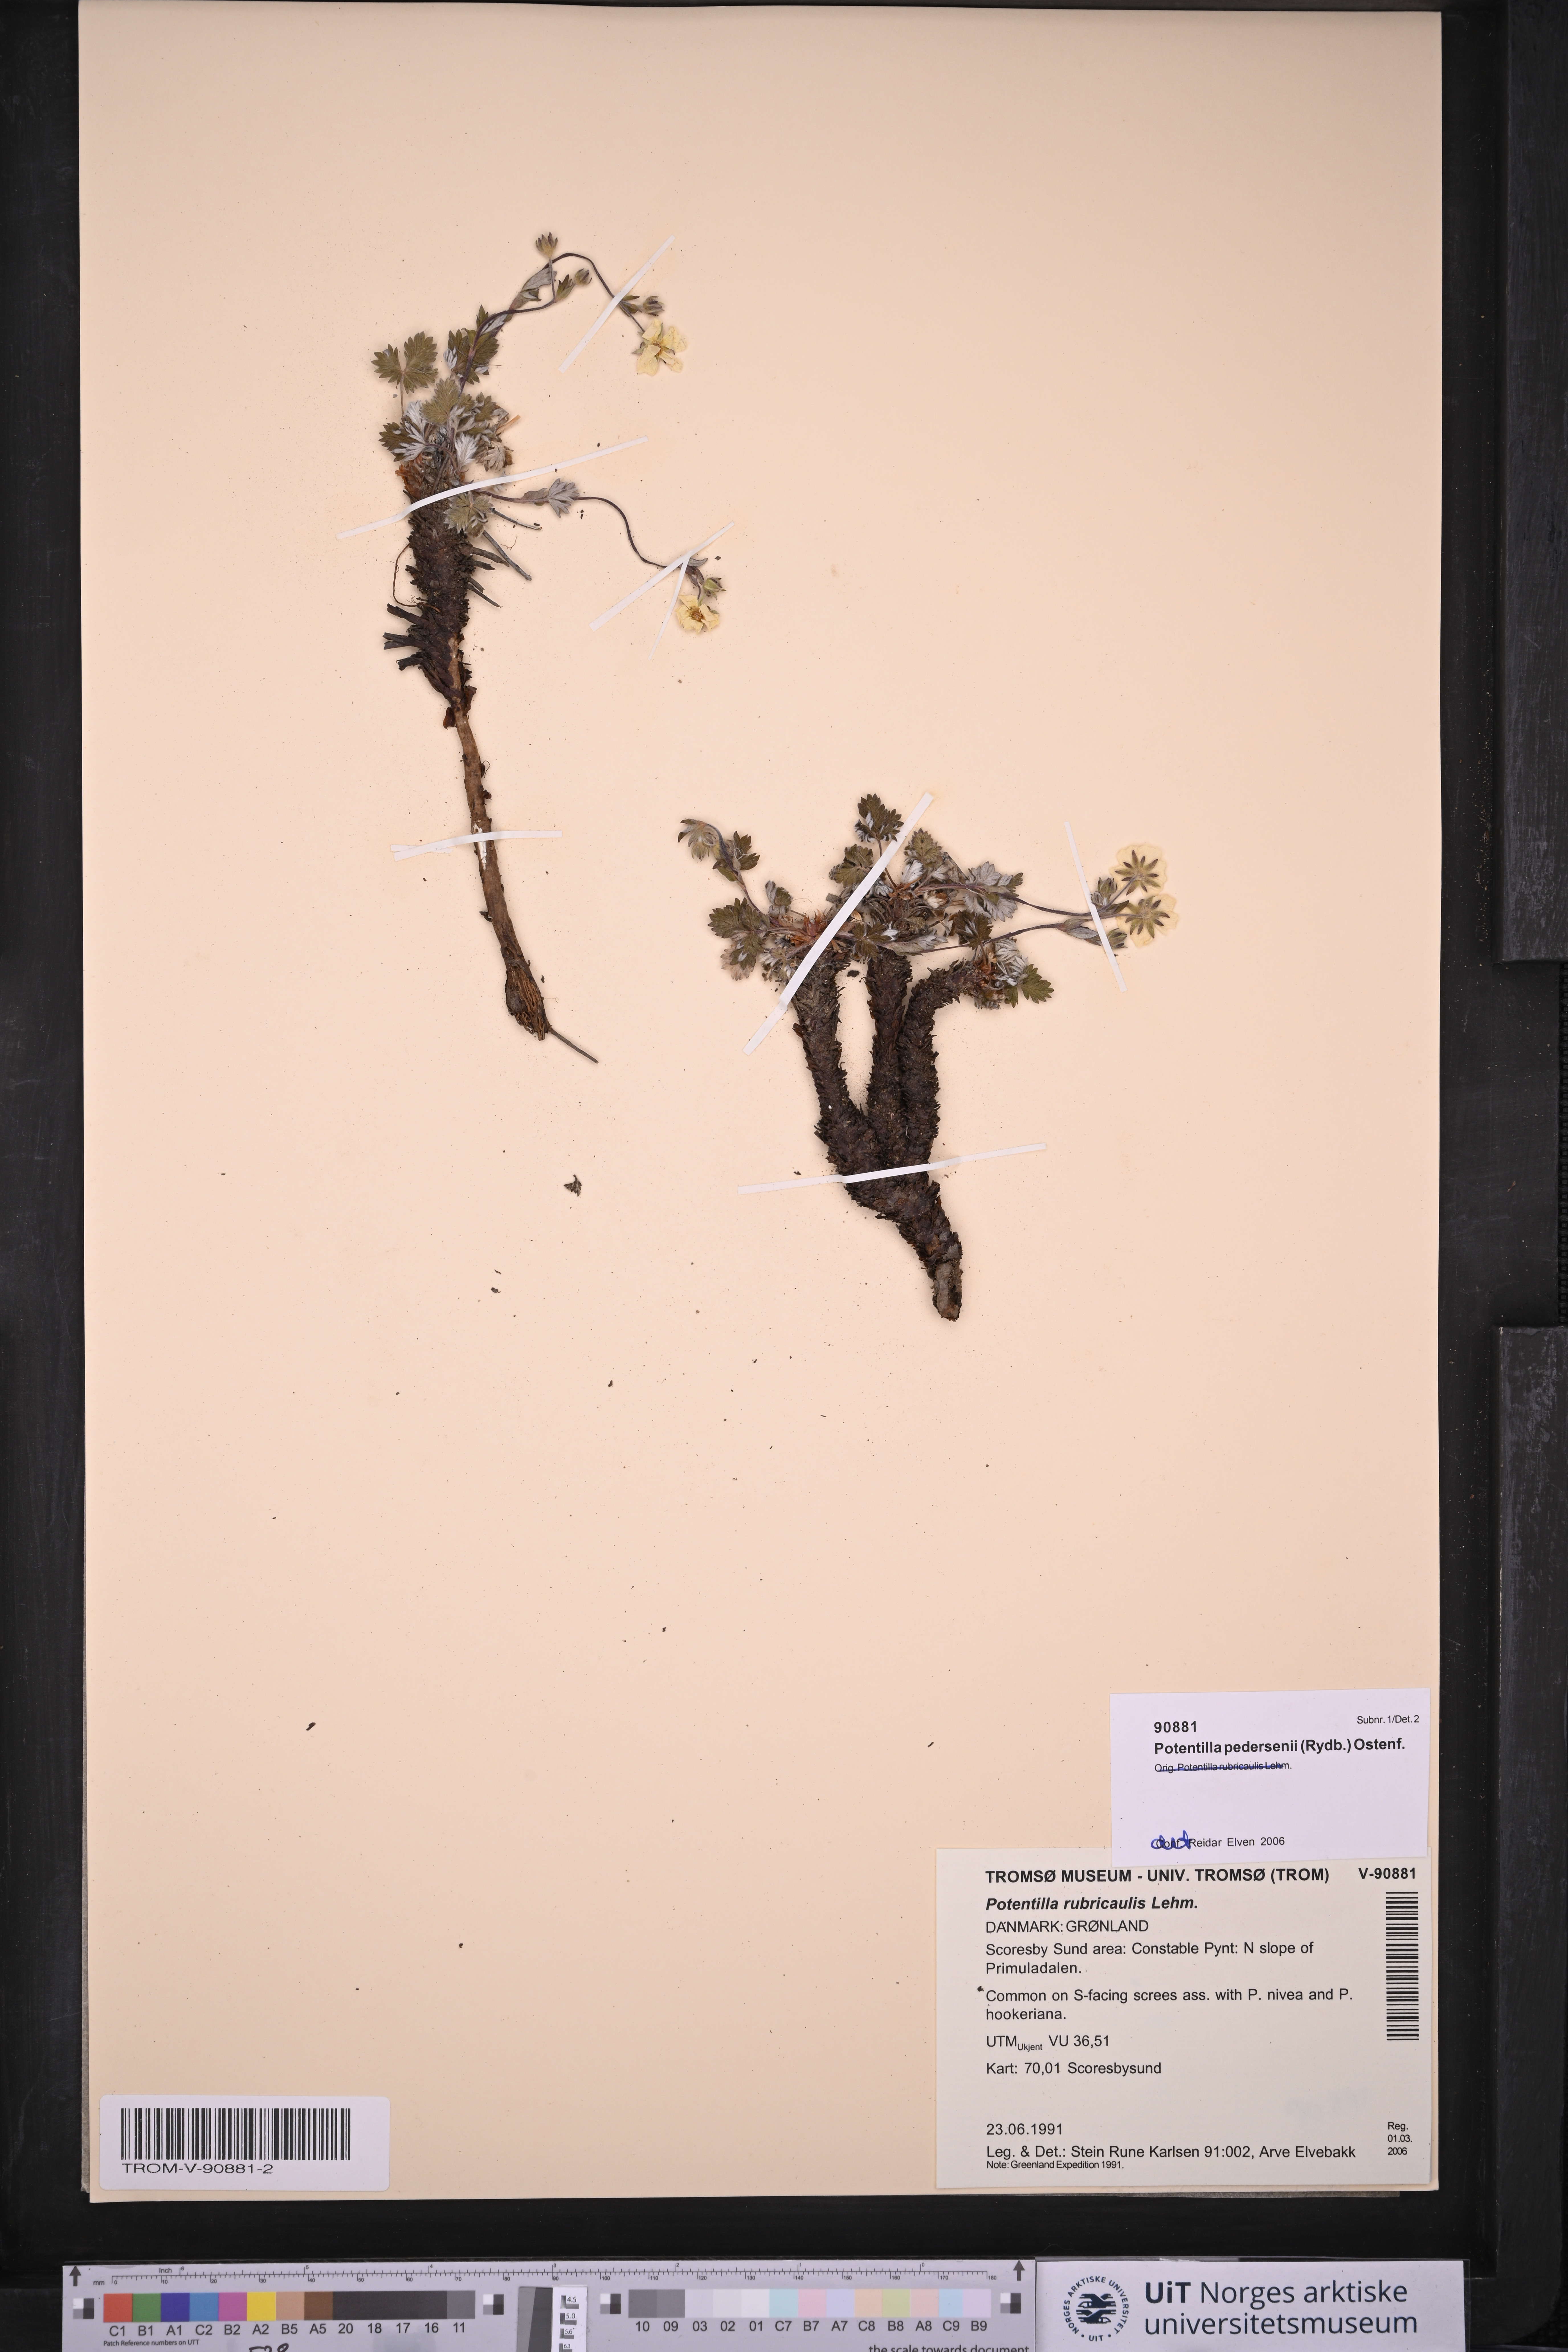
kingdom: Plantae
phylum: Tracheophyta
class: Magnoliopsida
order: Rosales
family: Rosaceae
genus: Potentilla
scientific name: Potentilla pedersenii
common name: Pedersen's cinquefoil
